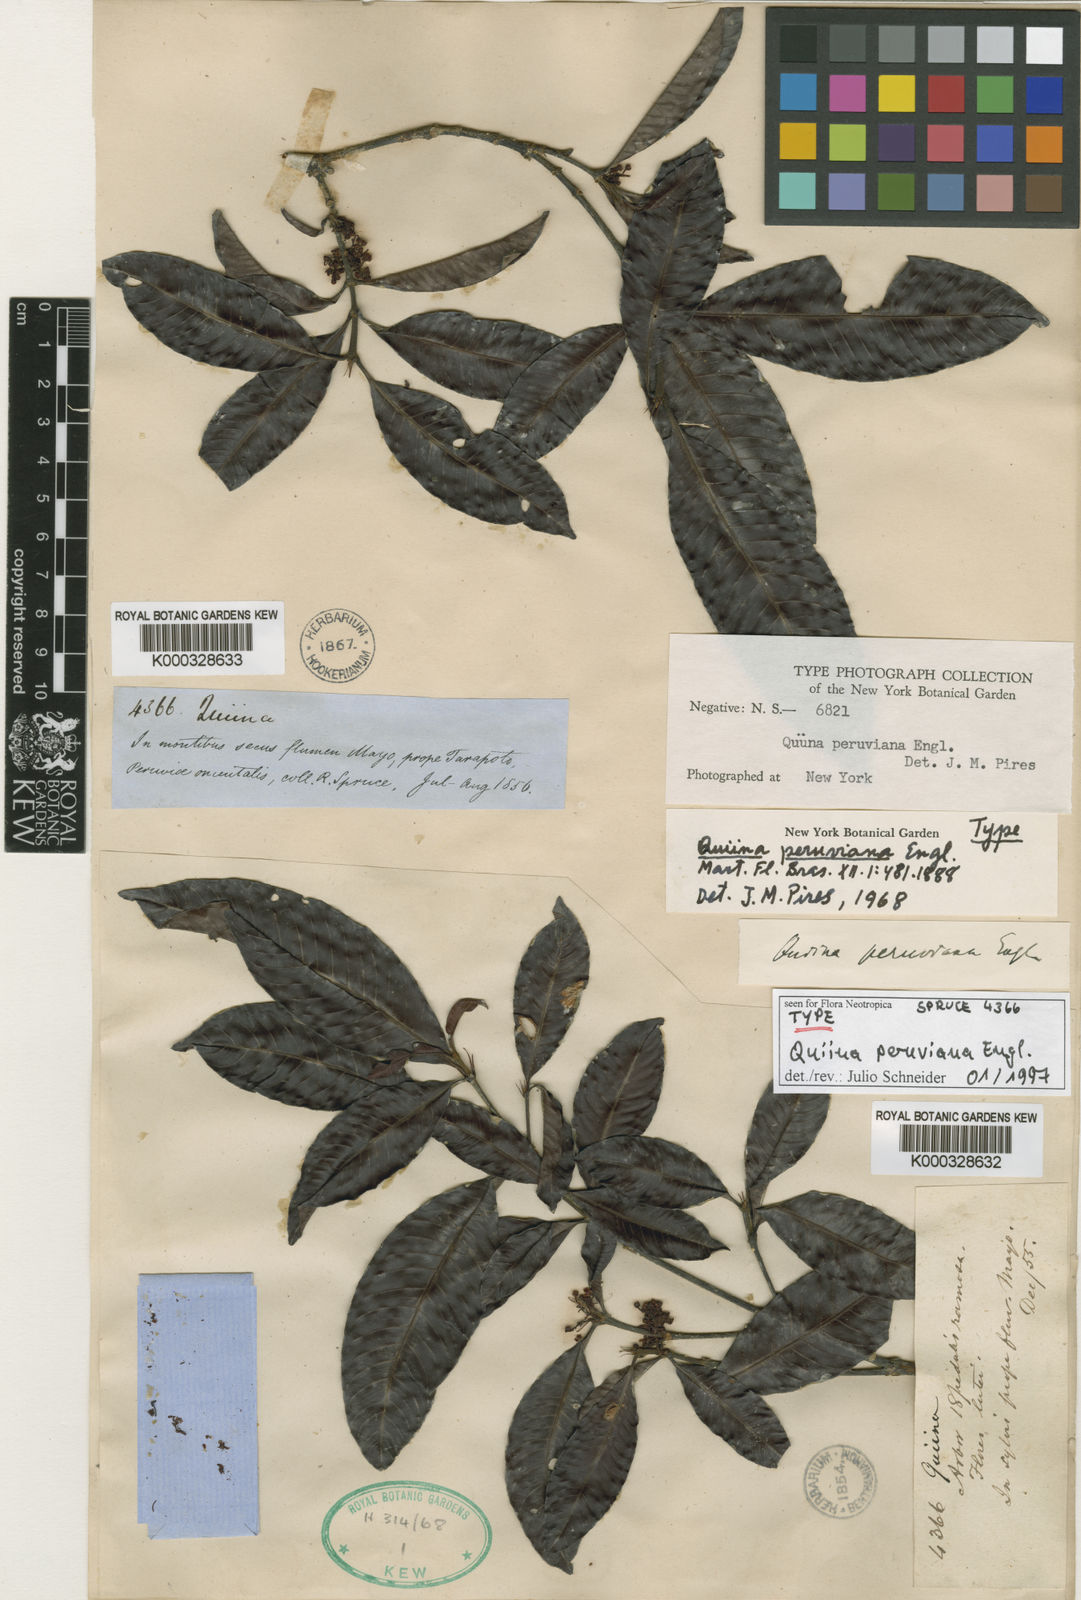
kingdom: Plantae
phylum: Tracheophyta
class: Magnoliopsida
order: Malpighiales
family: Quiinaceae
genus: Quiina
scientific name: Quiina cruegeriana
